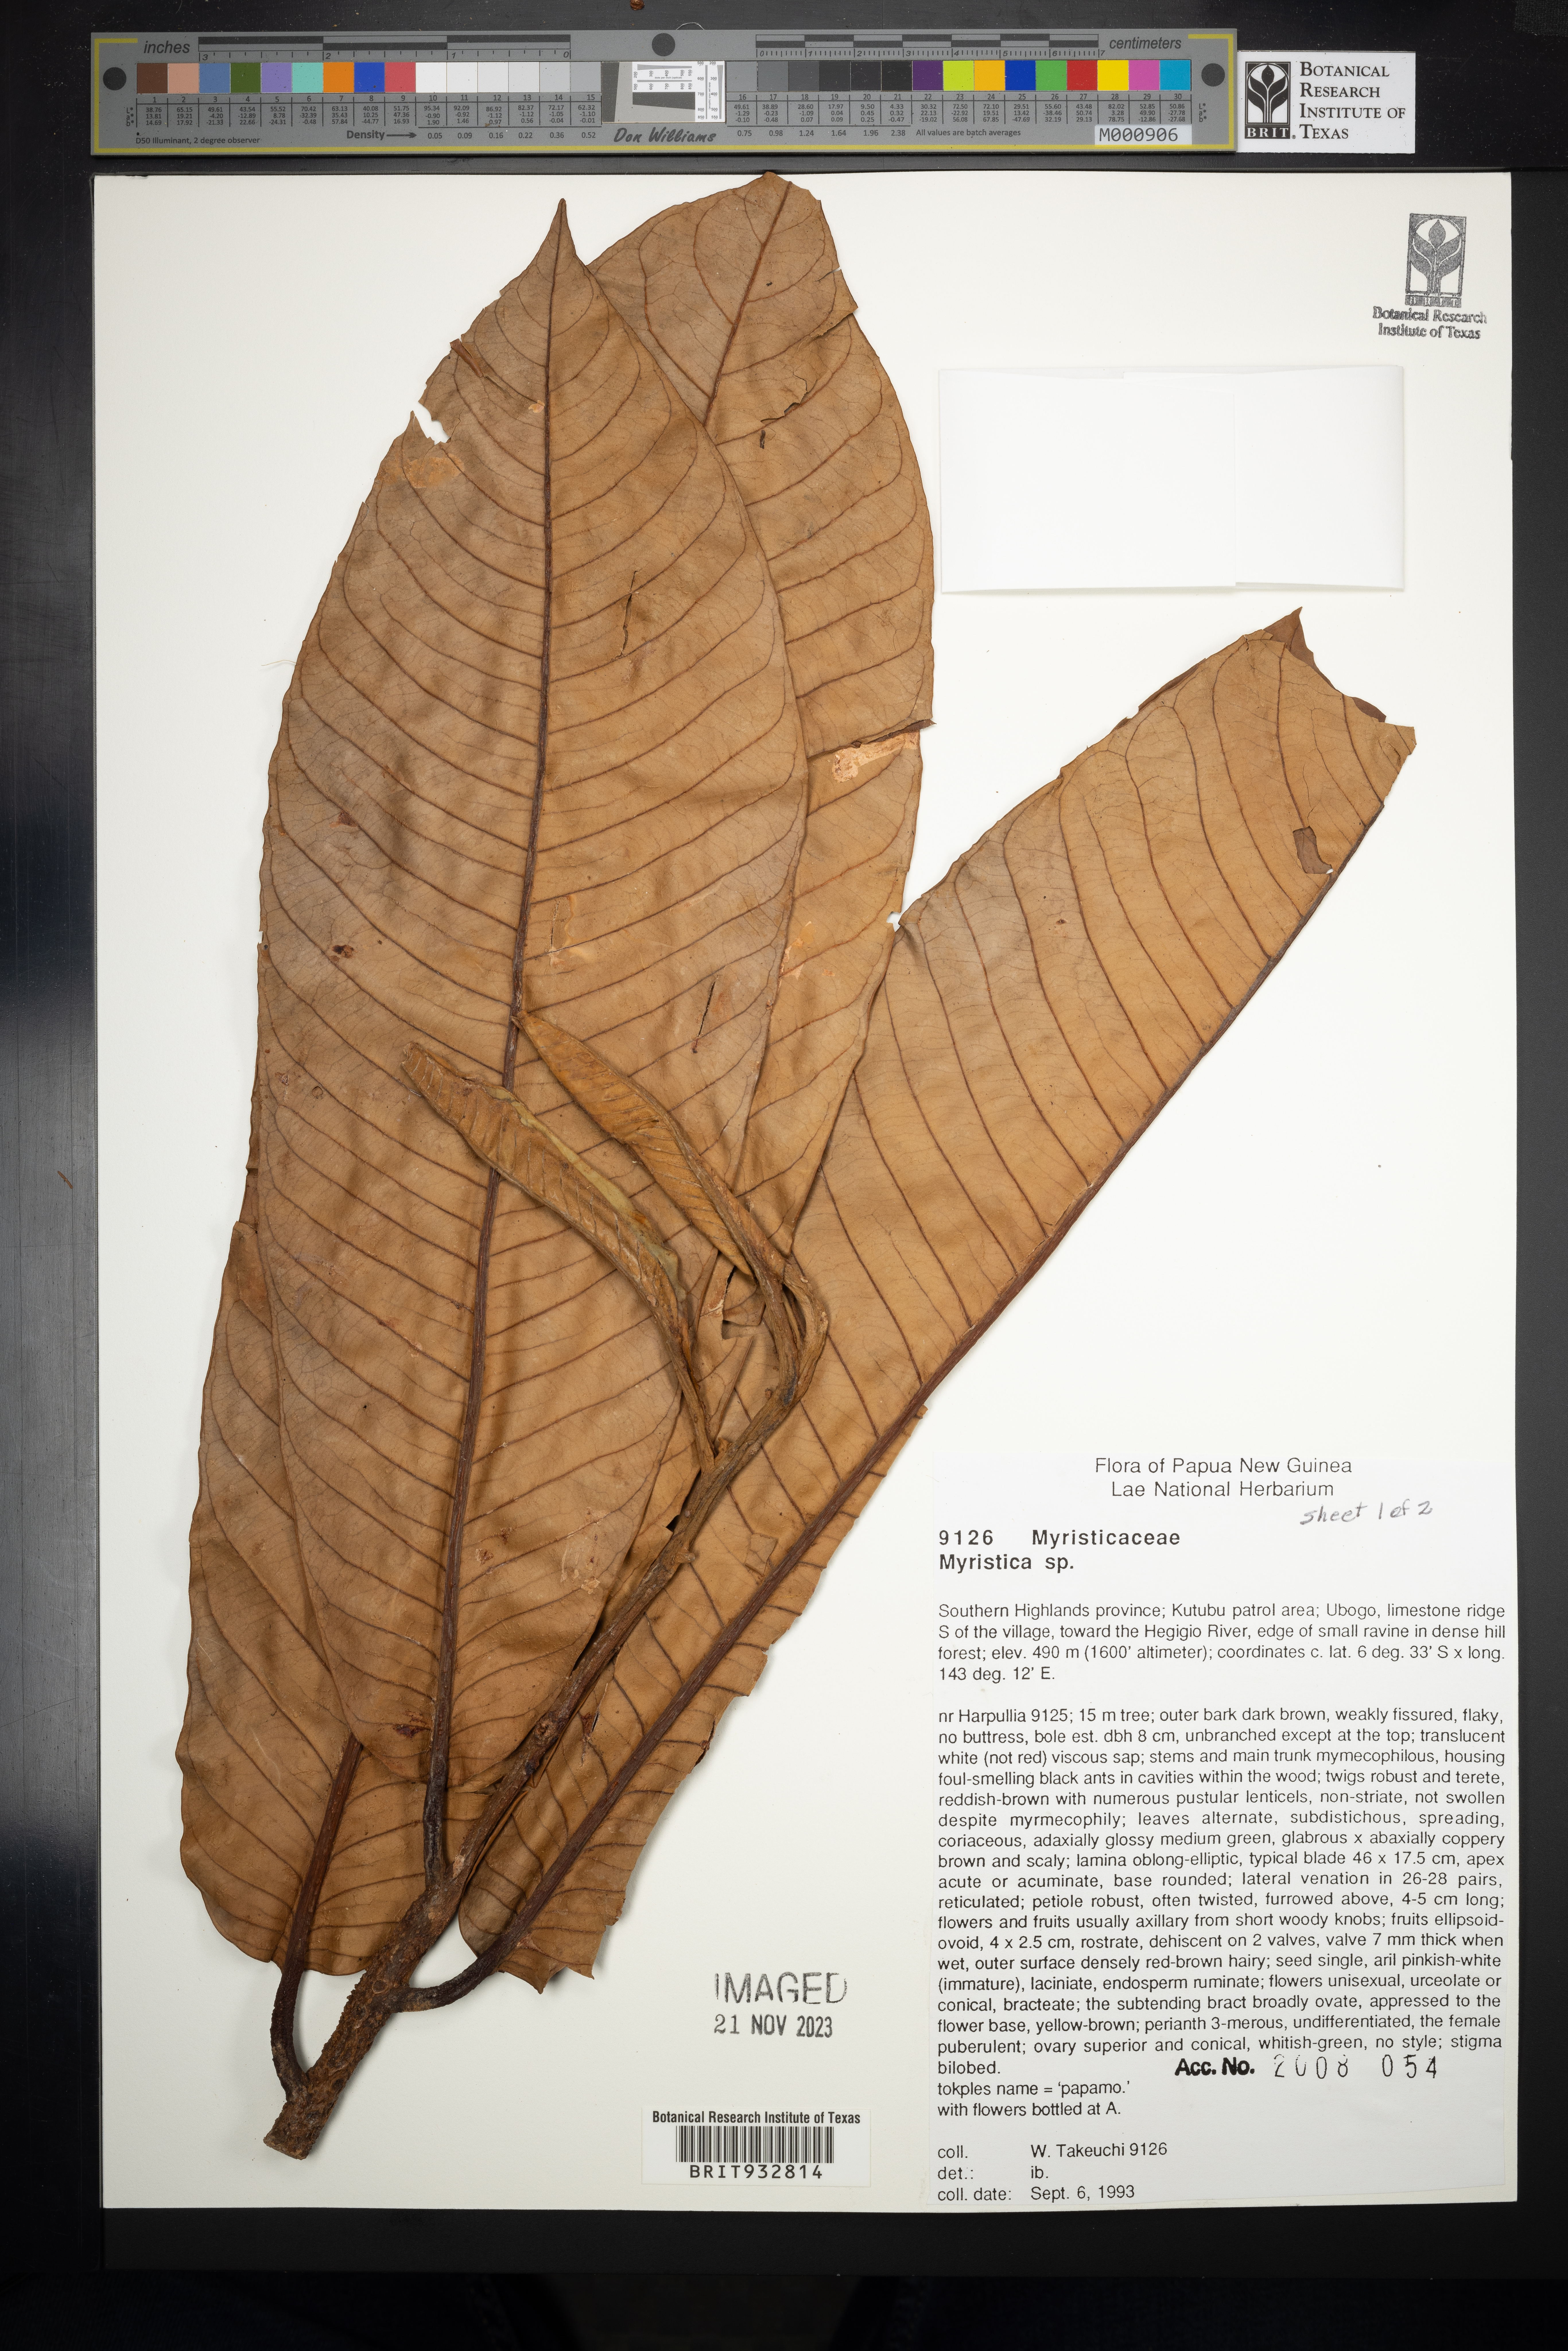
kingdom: Plantae
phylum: Tracheophyta
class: Magnoliopsida
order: Magnoliales
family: Myristicaceae
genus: Myristica
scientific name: Myristica
